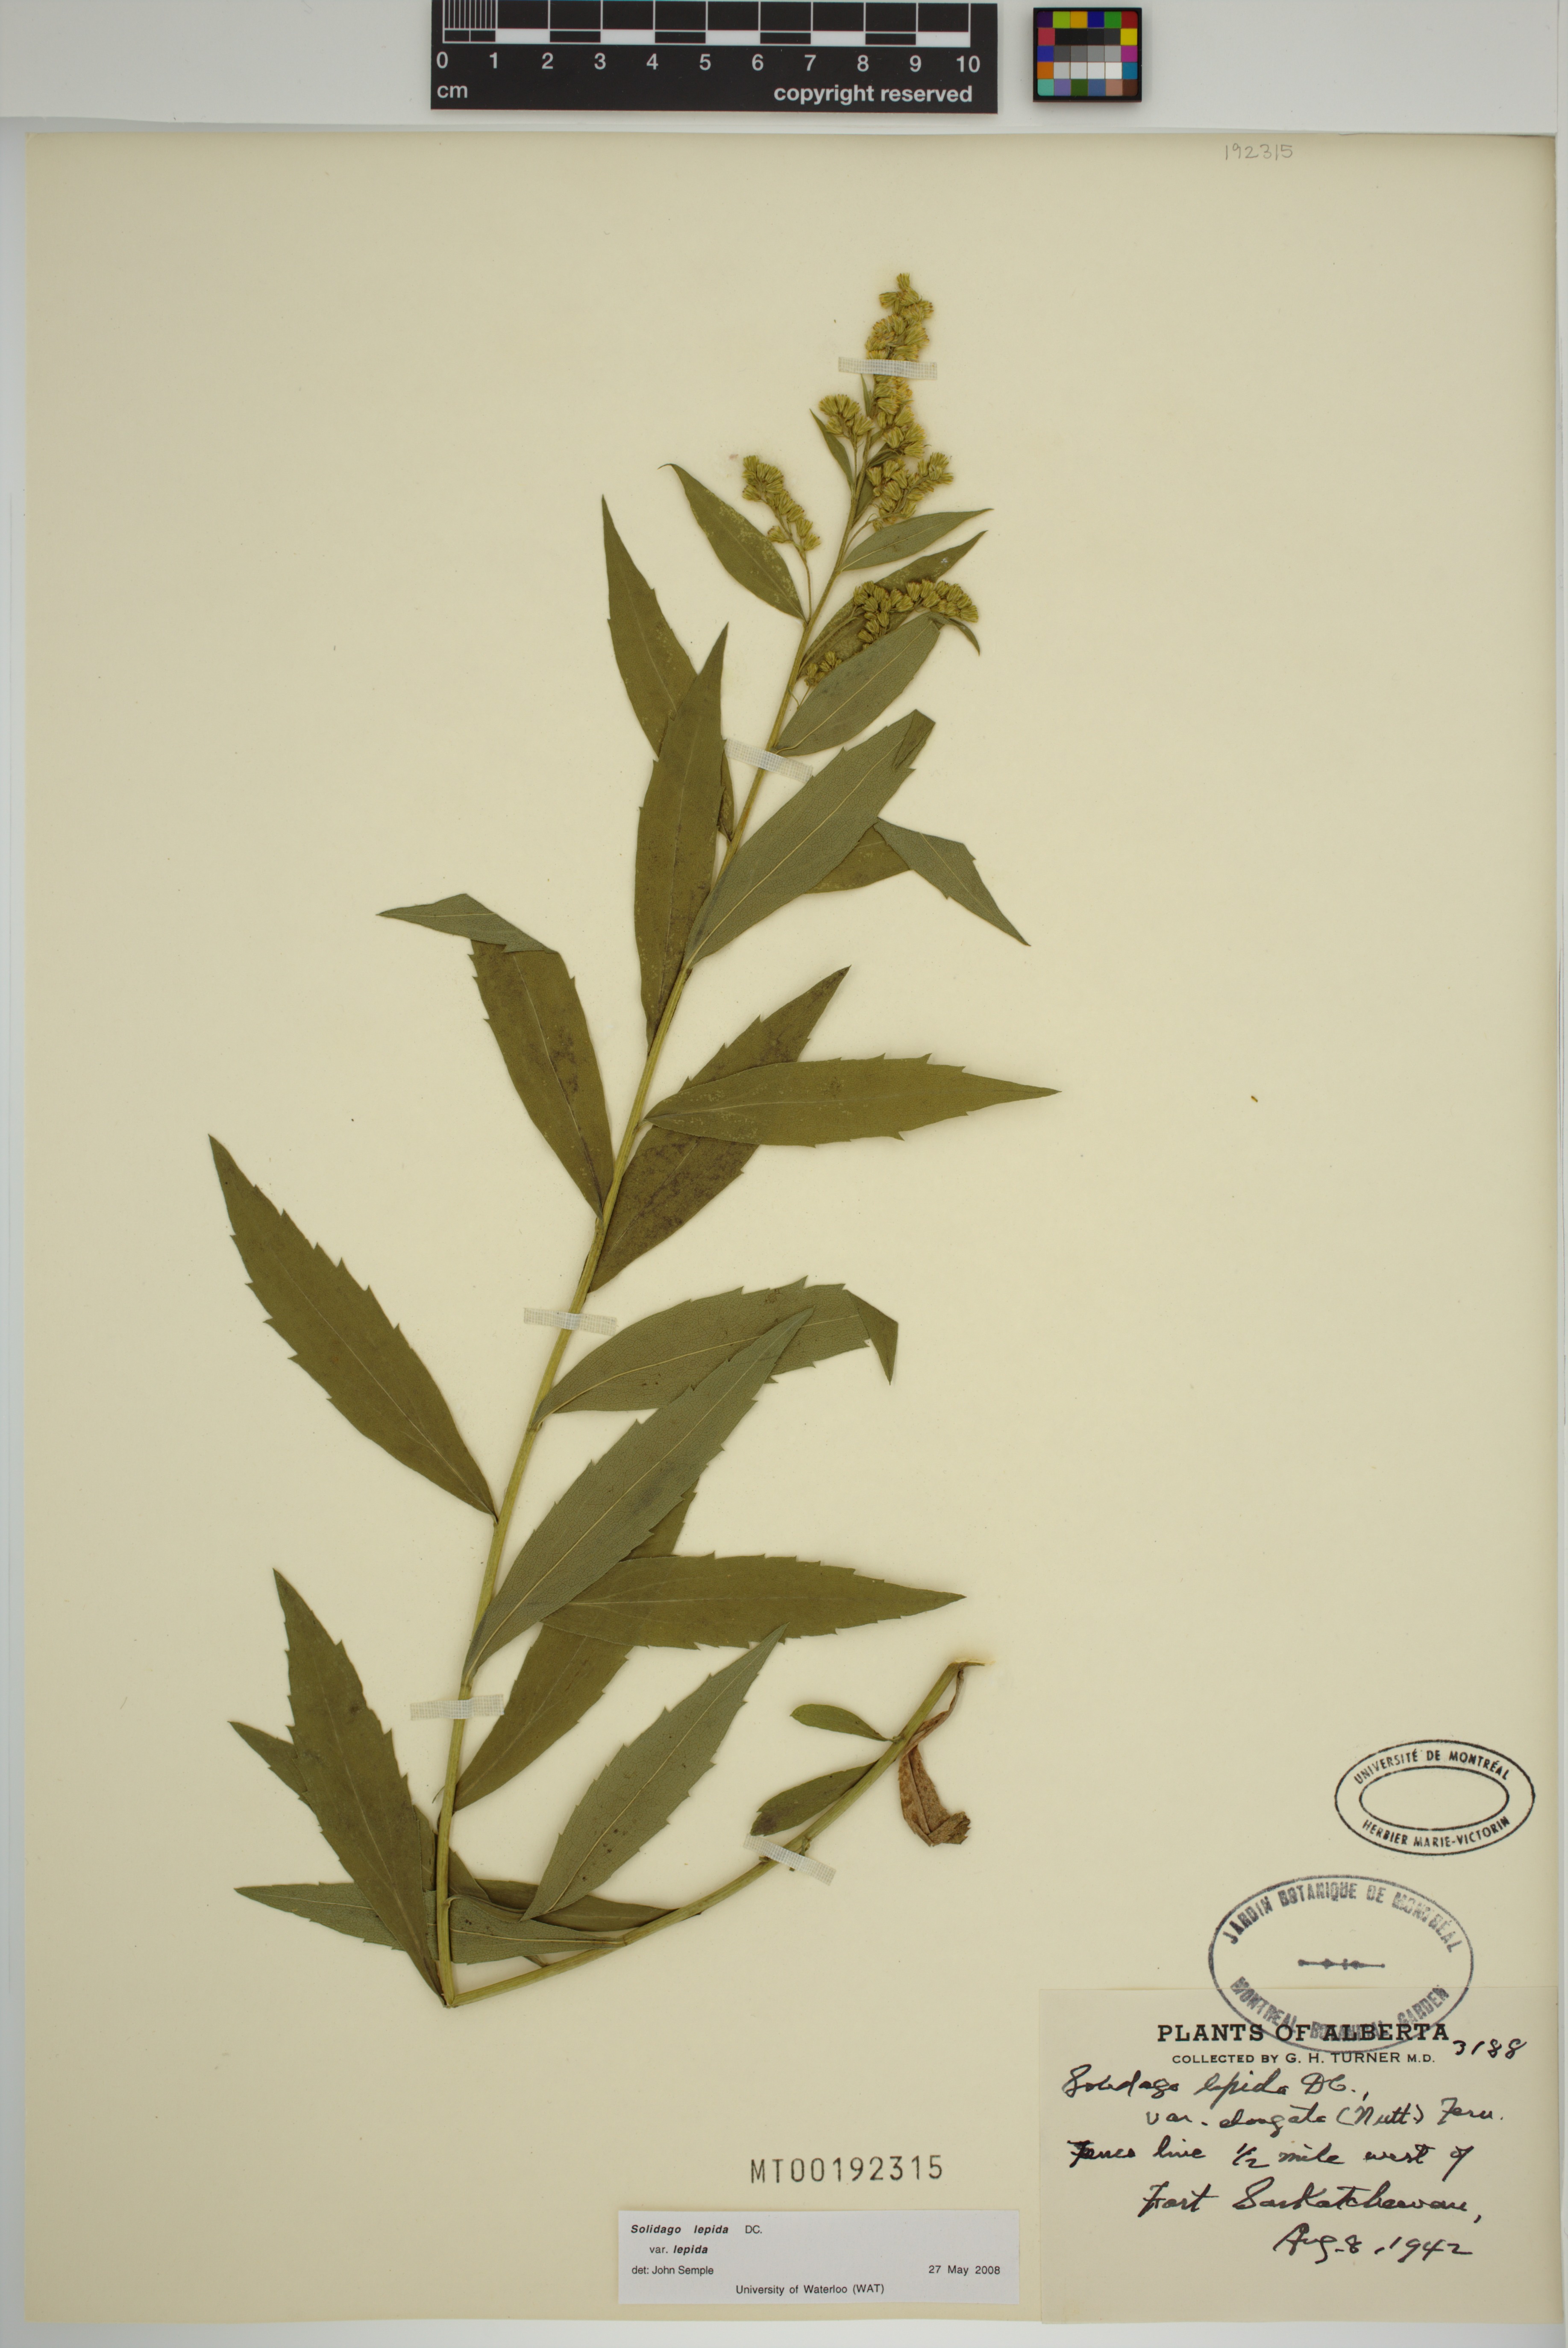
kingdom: Plantae
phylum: Tracheophyta
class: Magnoliopsida
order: Asterales
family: Asteraceae
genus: Solidago
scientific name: Solidago lepida
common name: Western canada goldenrod
